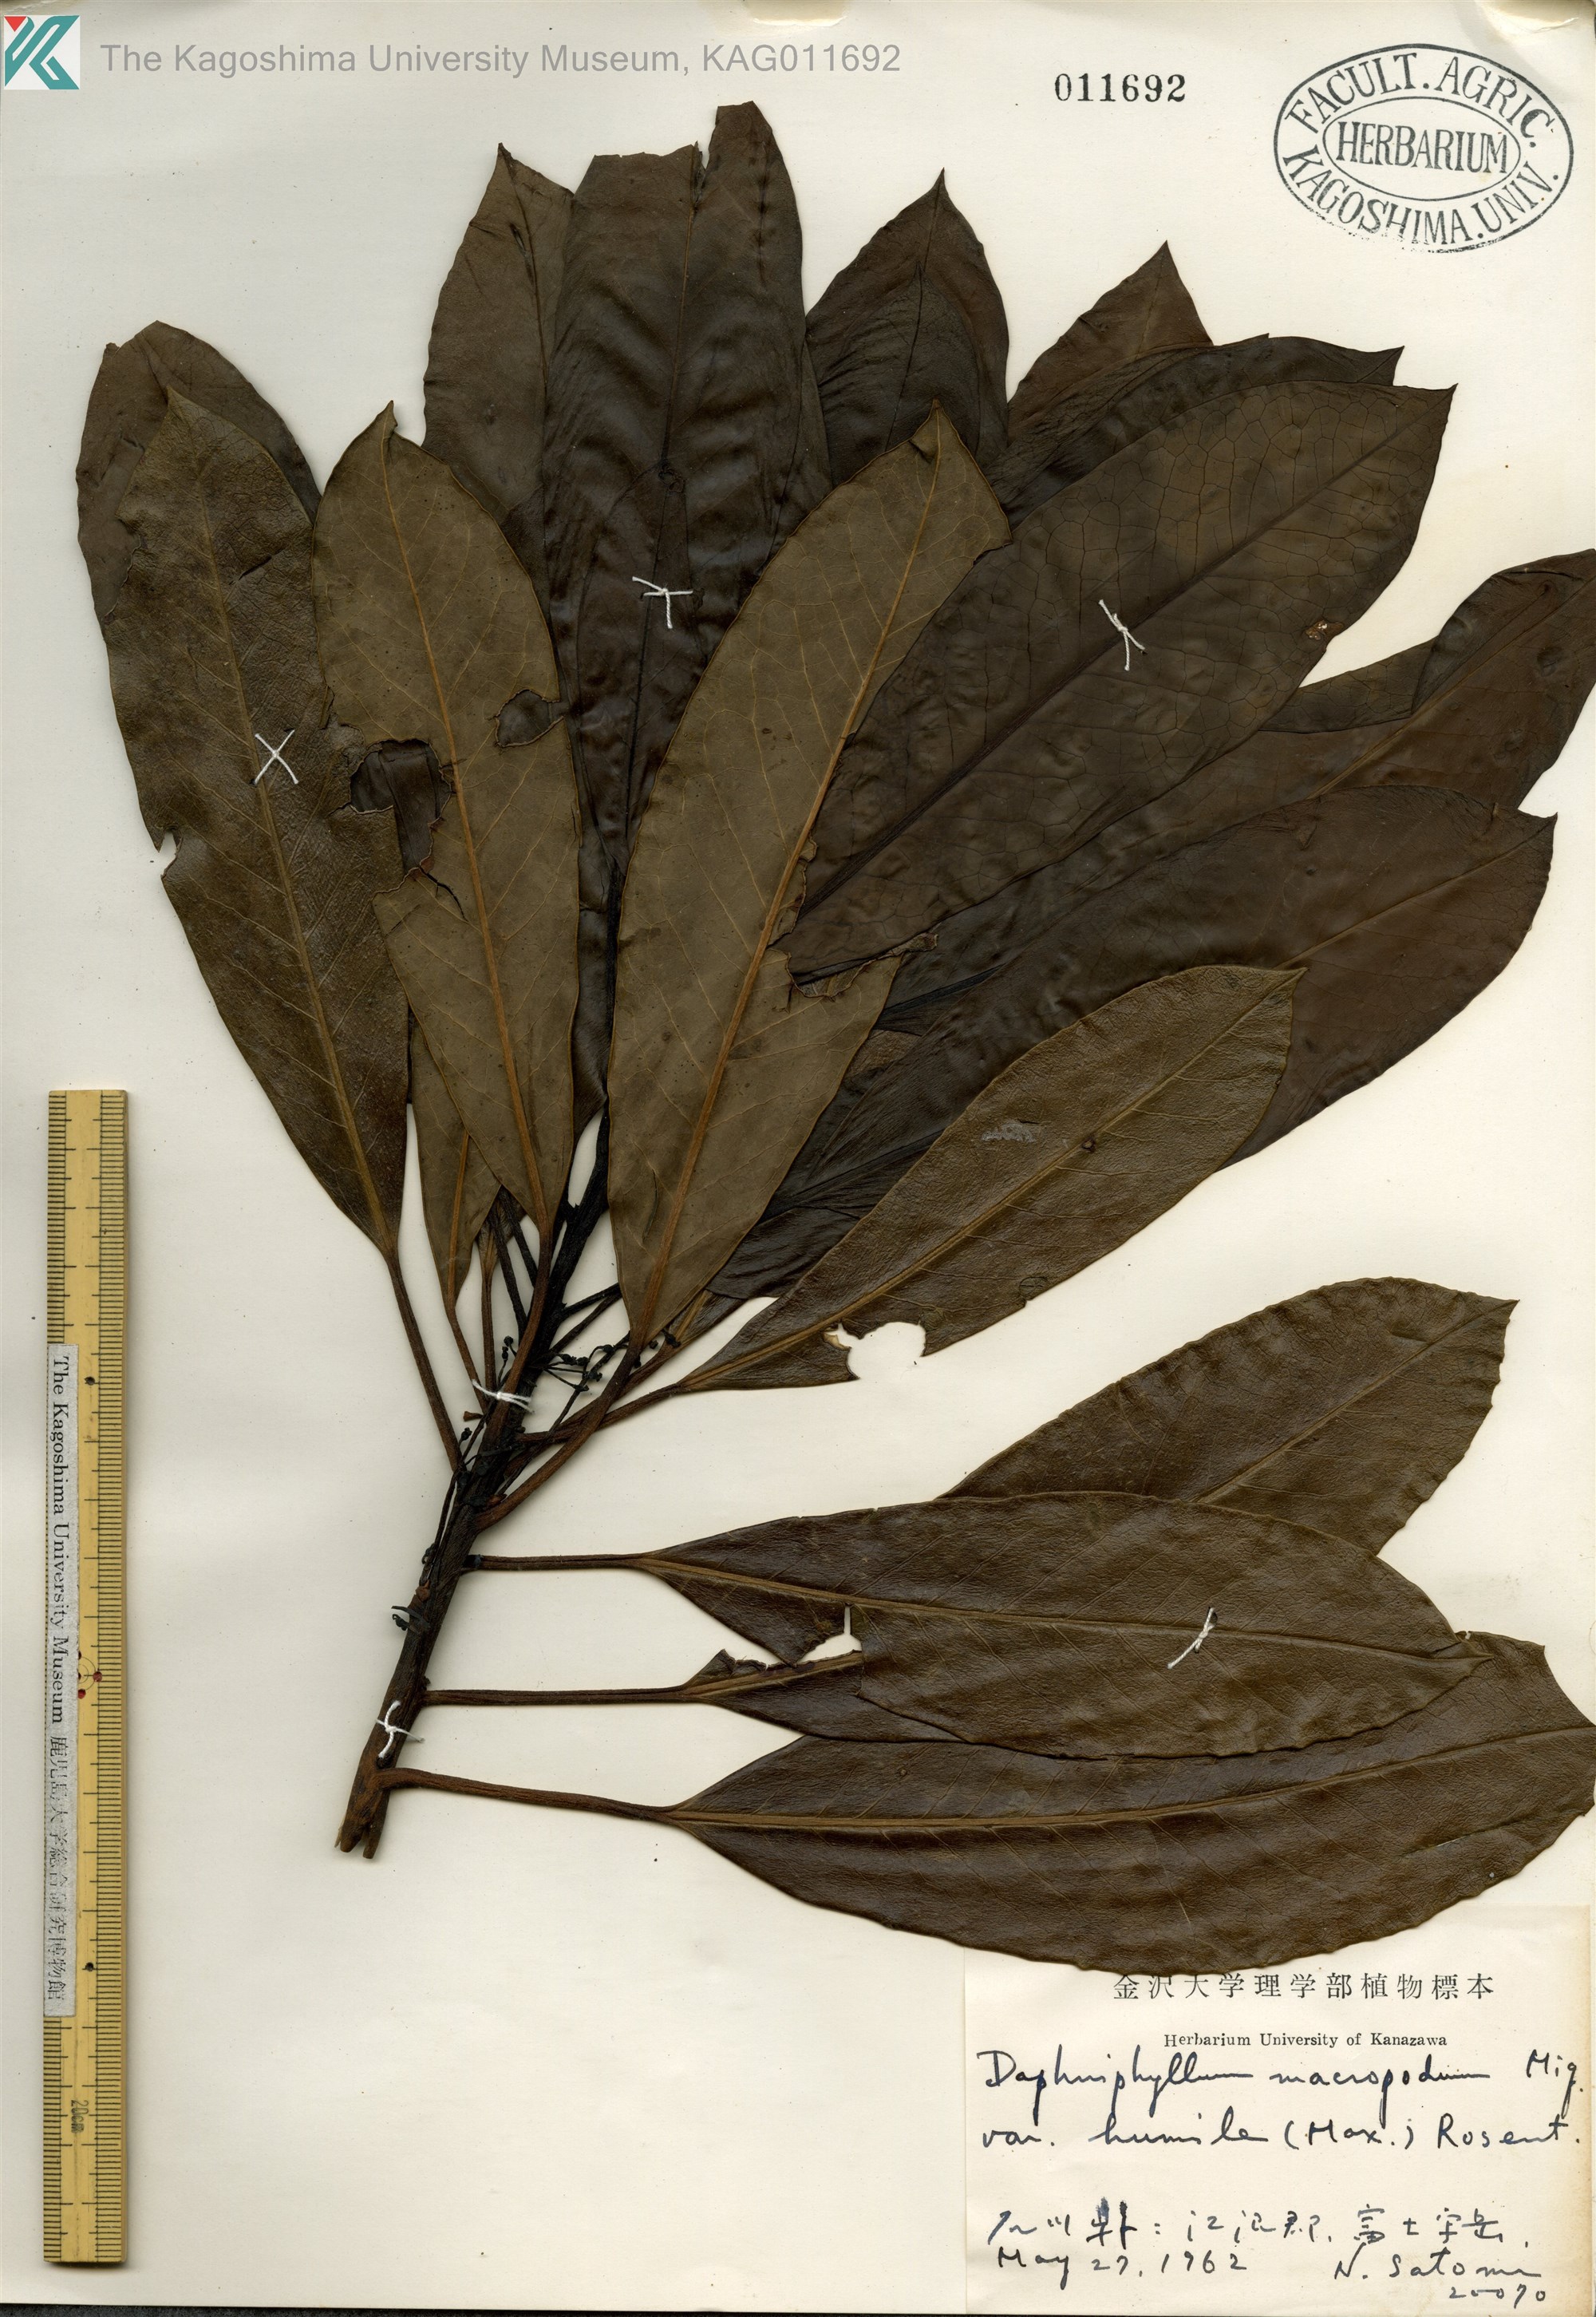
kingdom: Plantae
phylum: Tracheophyta
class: Magnoliopsida
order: Saxifragales
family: Daphniphyllaceae
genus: Daphniphyllum
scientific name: Daphniphyllum macropodum
